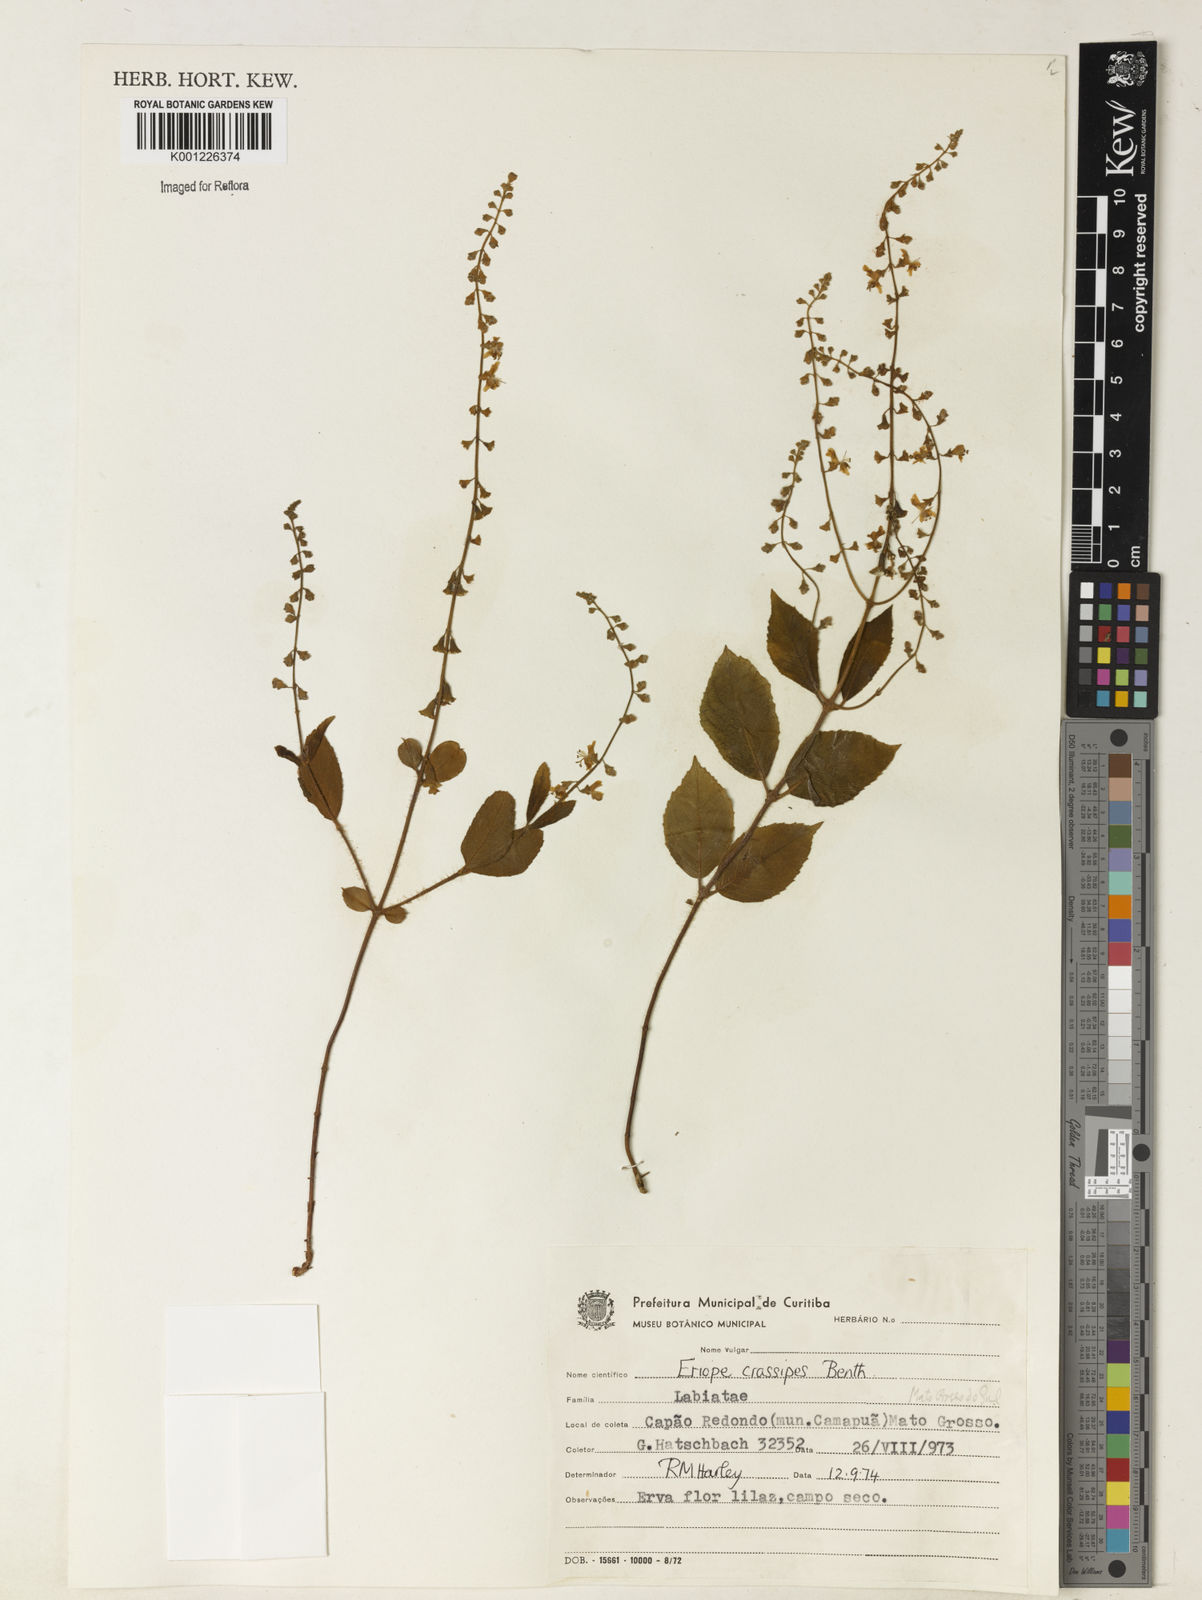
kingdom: Plantae
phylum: Tracheophyta
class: Magnoliopsida
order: Lamiales
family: Lamiaceae
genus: Eriope
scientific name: Eriope crassipes
